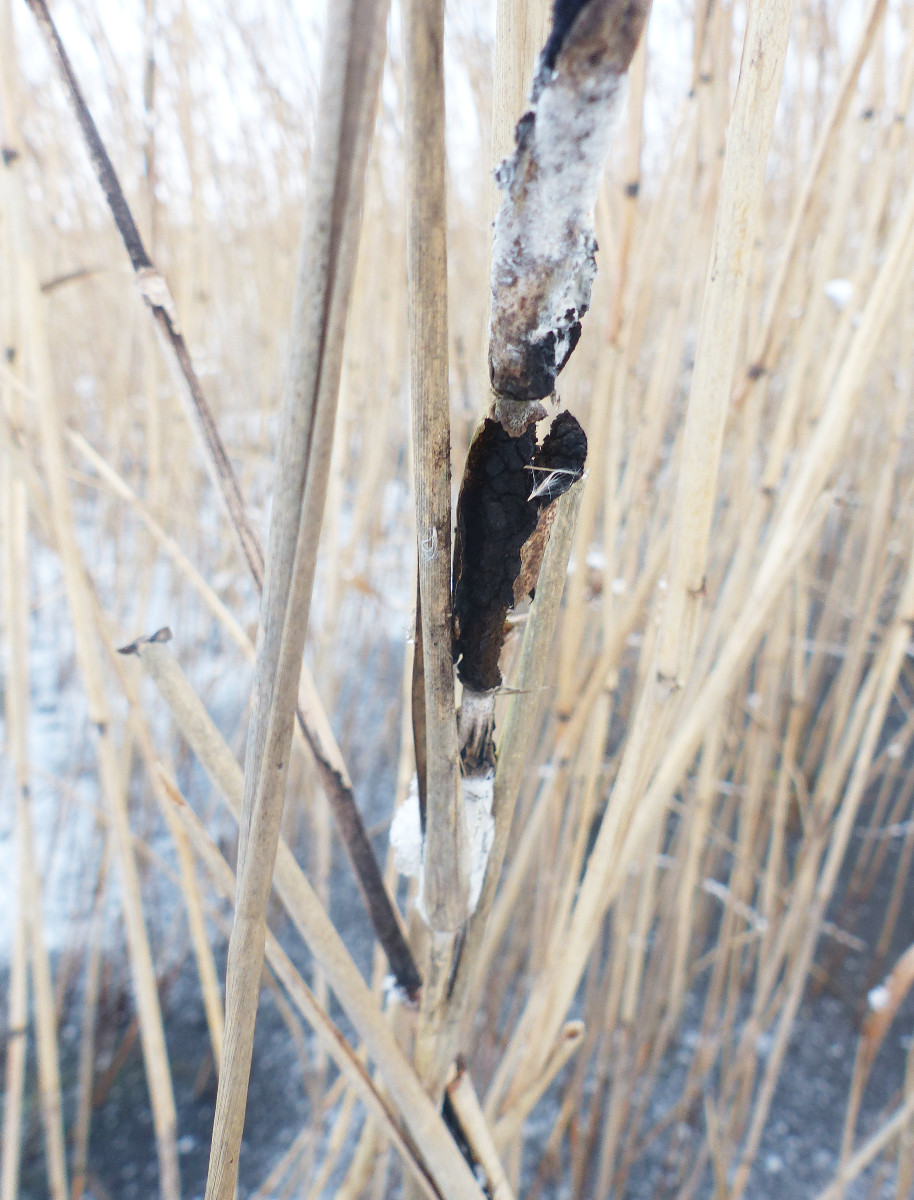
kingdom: Fungi
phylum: Basidiomycota
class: Ustilaginomycetes
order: Ustilaginales
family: Ustilaginaceae
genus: Ustilago
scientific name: Ustilago grandis
